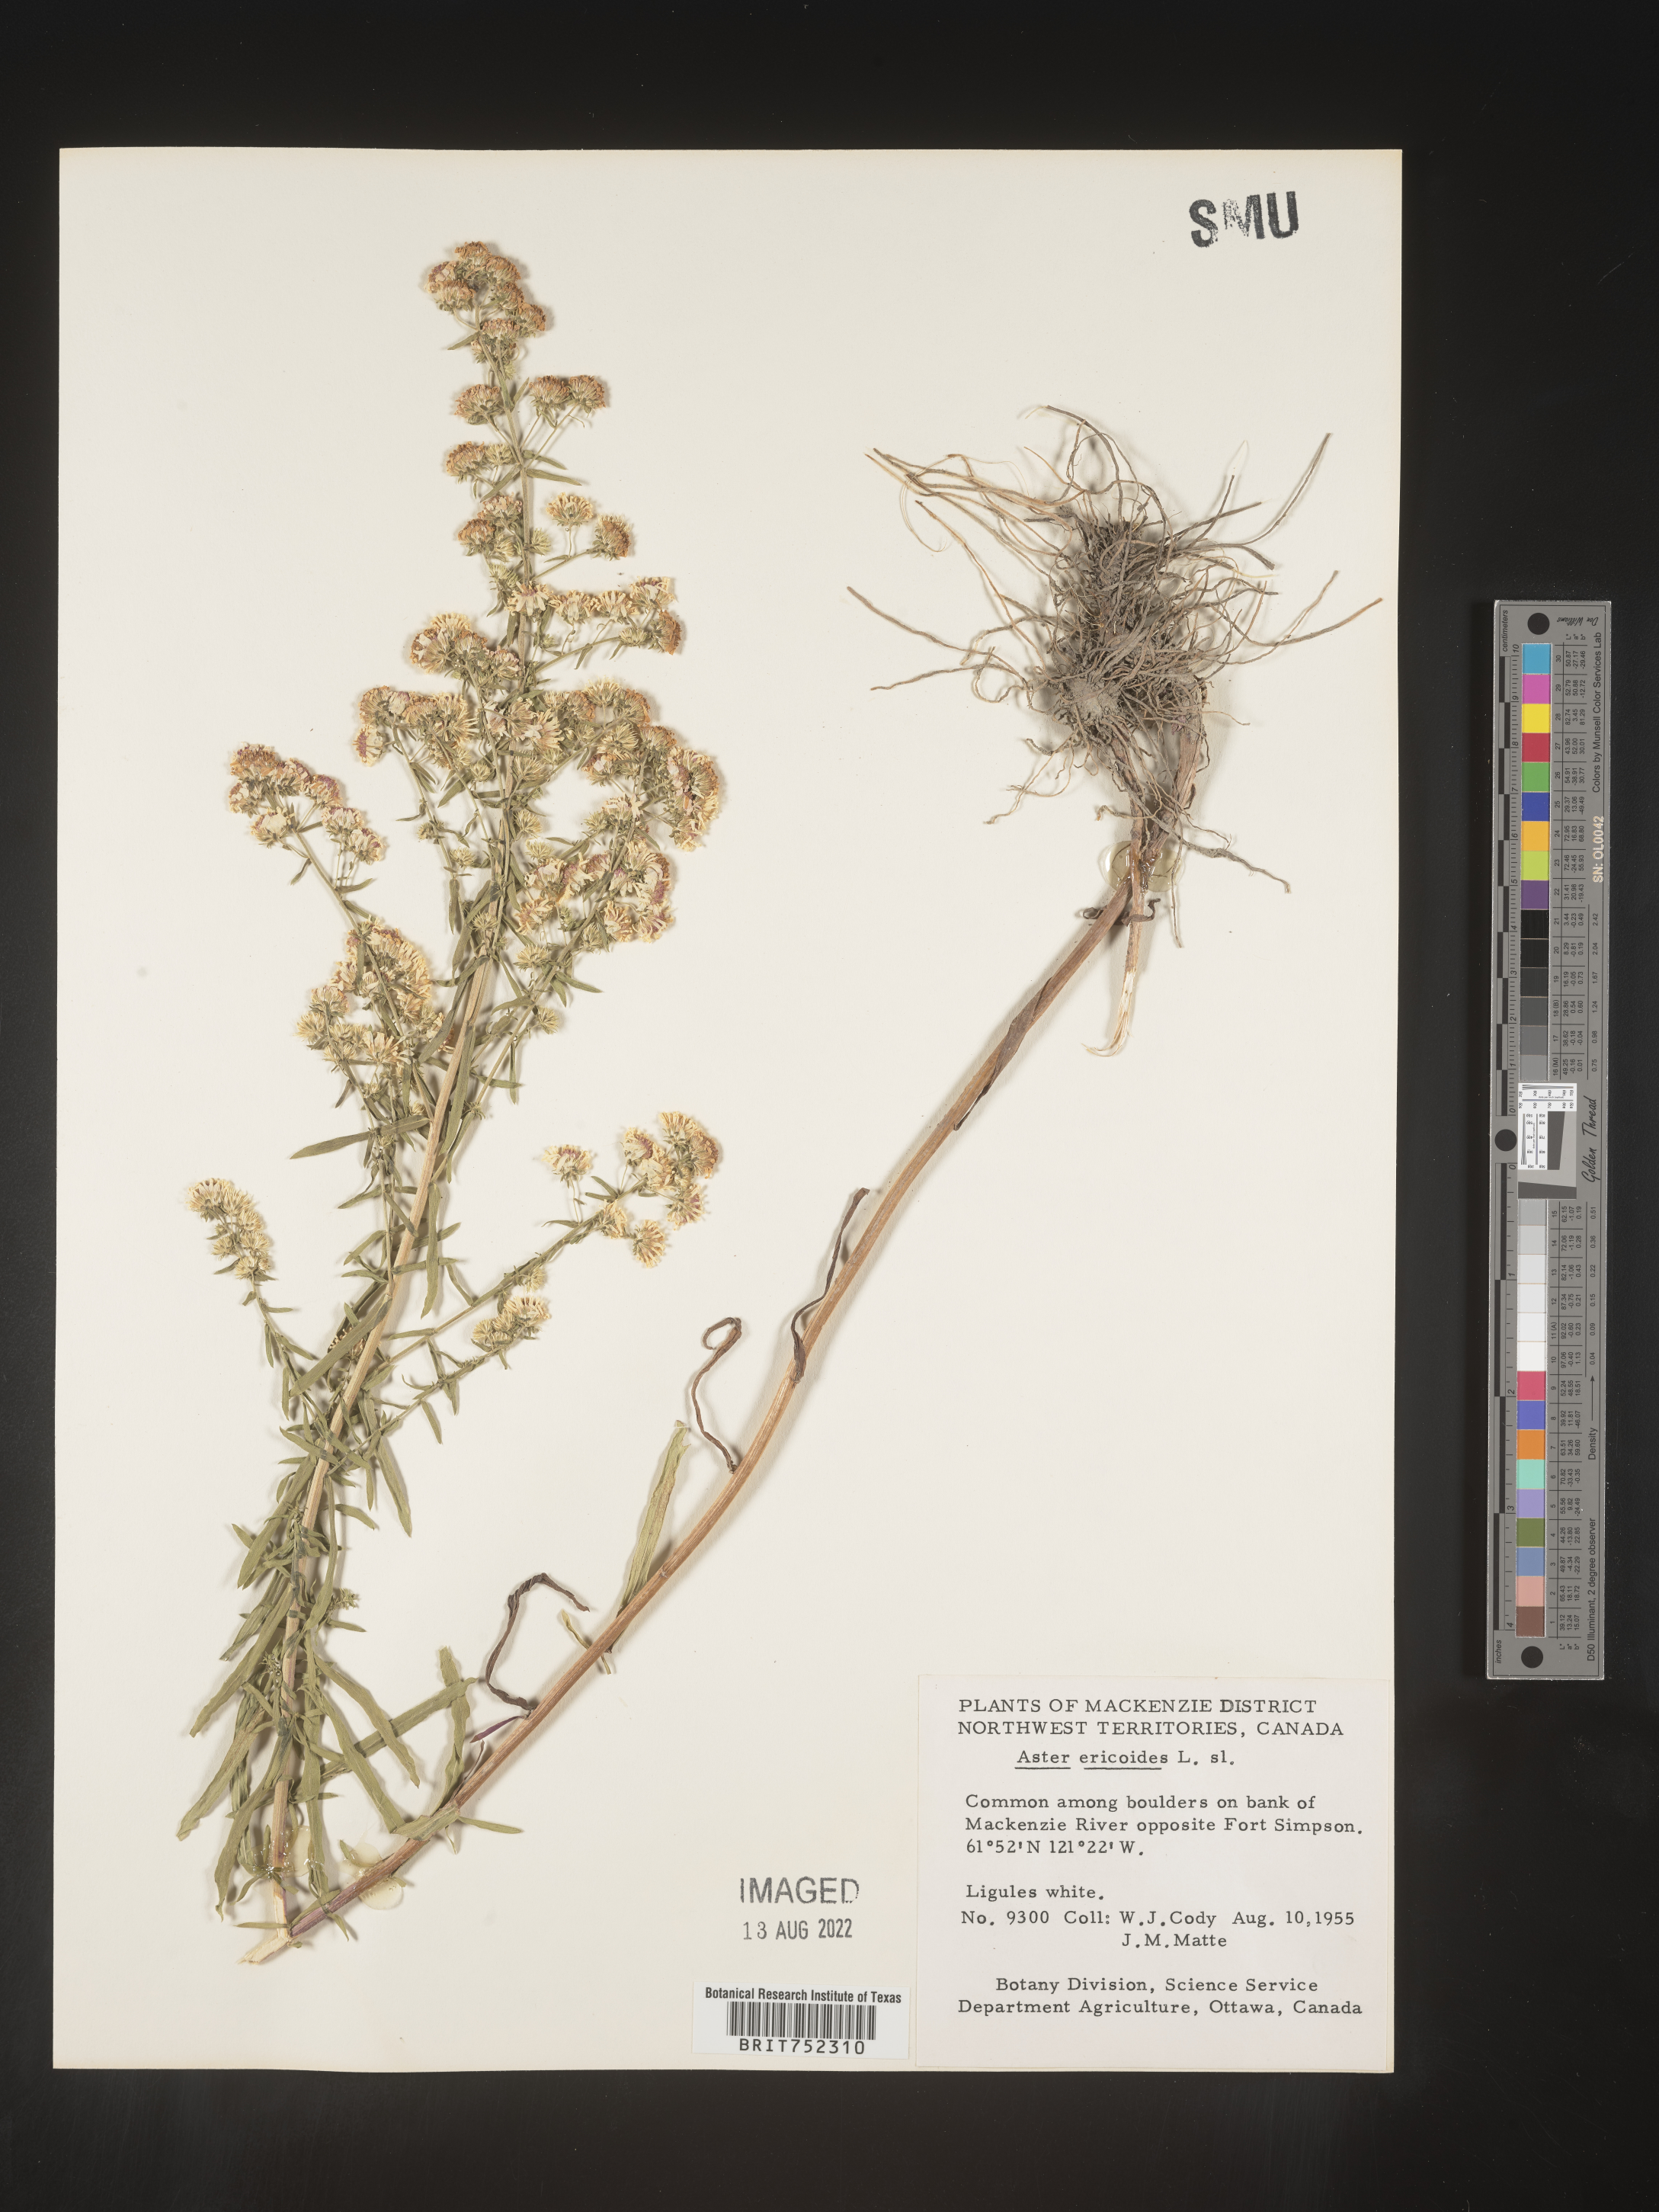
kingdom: Plantae
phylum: Tracheophyta
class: Magnoliopsida
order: Asterales
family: Asteraceae
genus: Symphyotrichum
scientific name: Symphyotrichum falcatum
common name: Creeping white prairie aster
